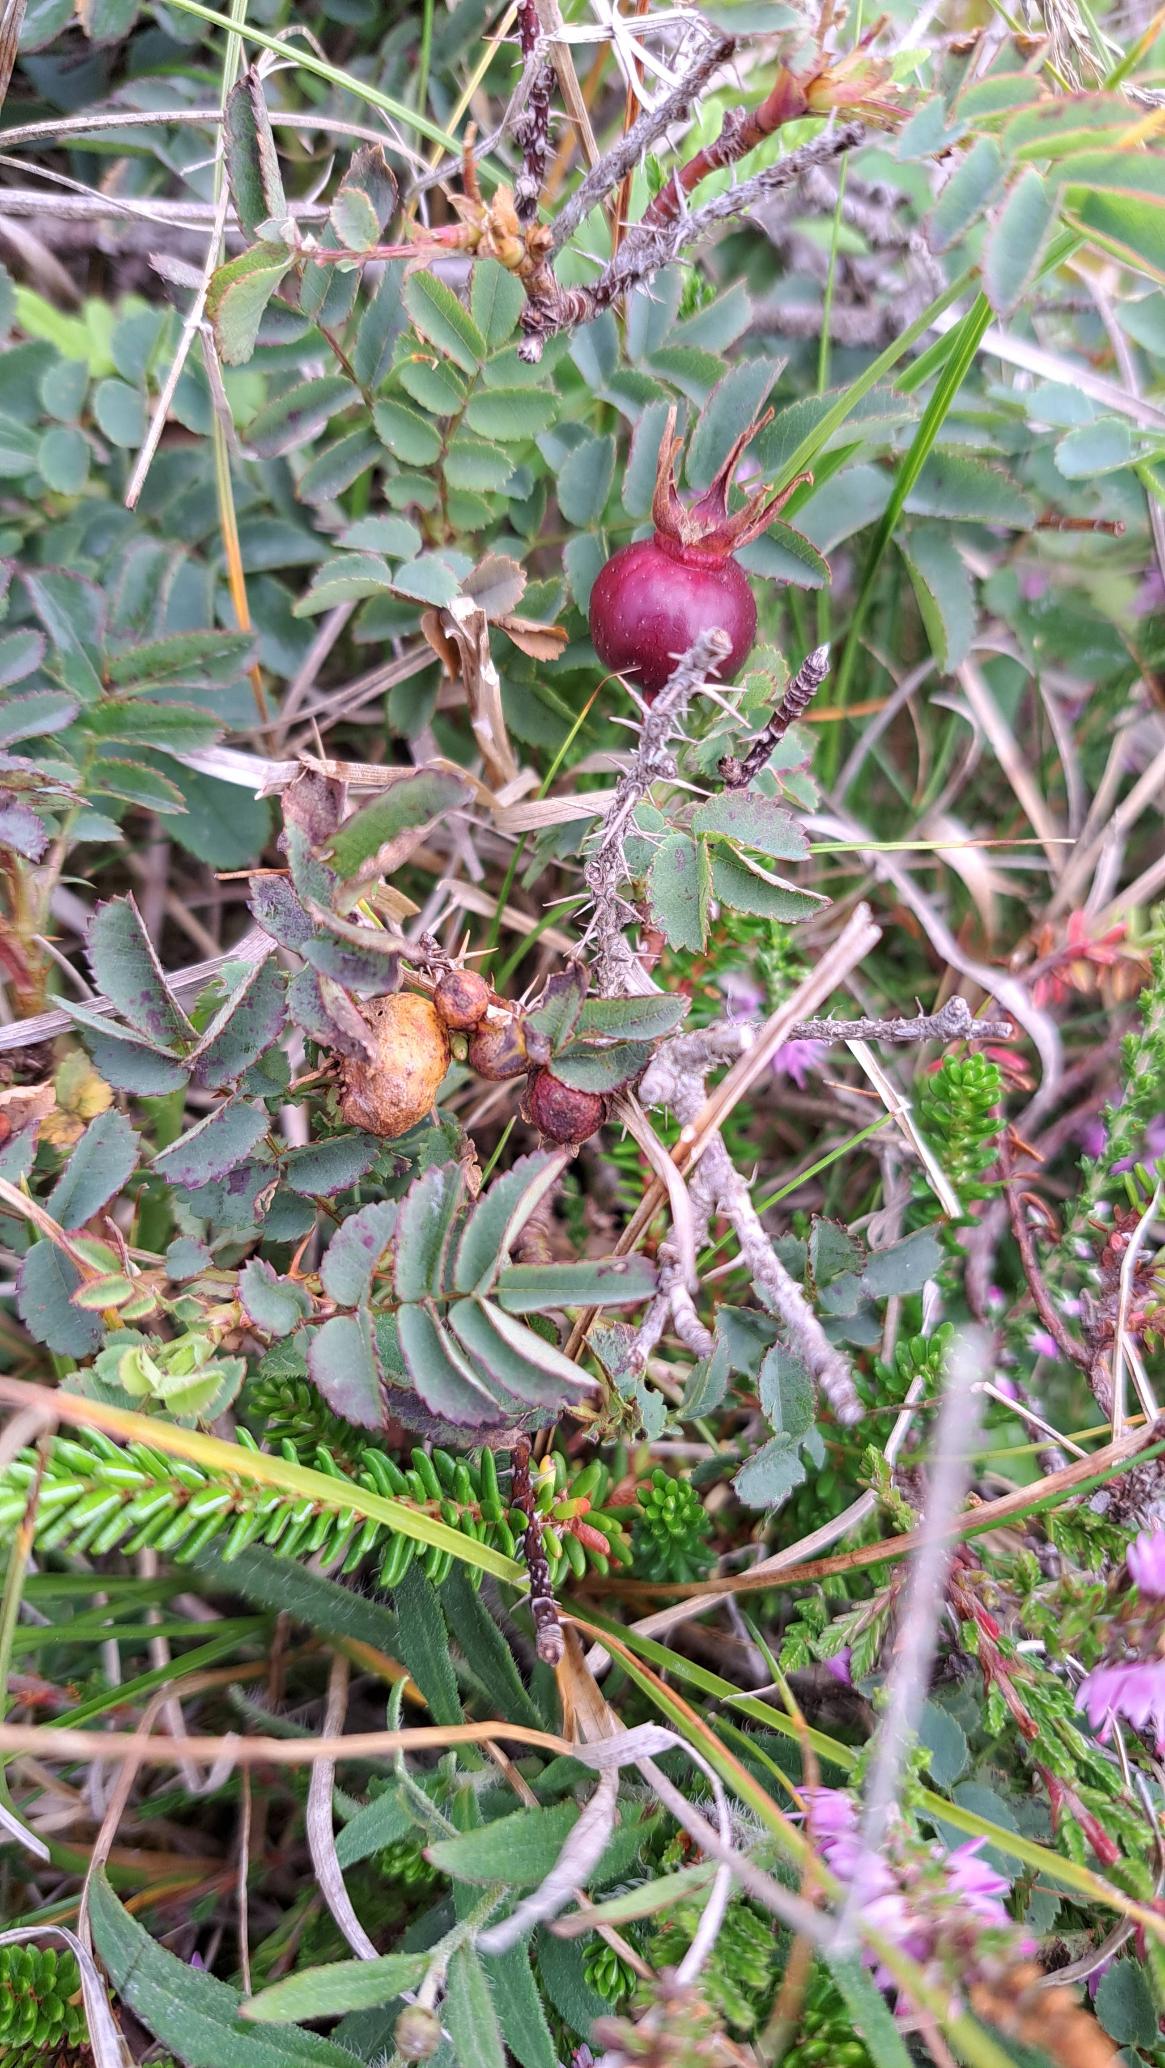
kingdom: Plantae
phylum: Tracheophyta
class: Magnoliopsida
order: Rosales
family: Rosaceae
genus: Rosa
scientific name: Rosa spinosissima
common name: Klit-rose
